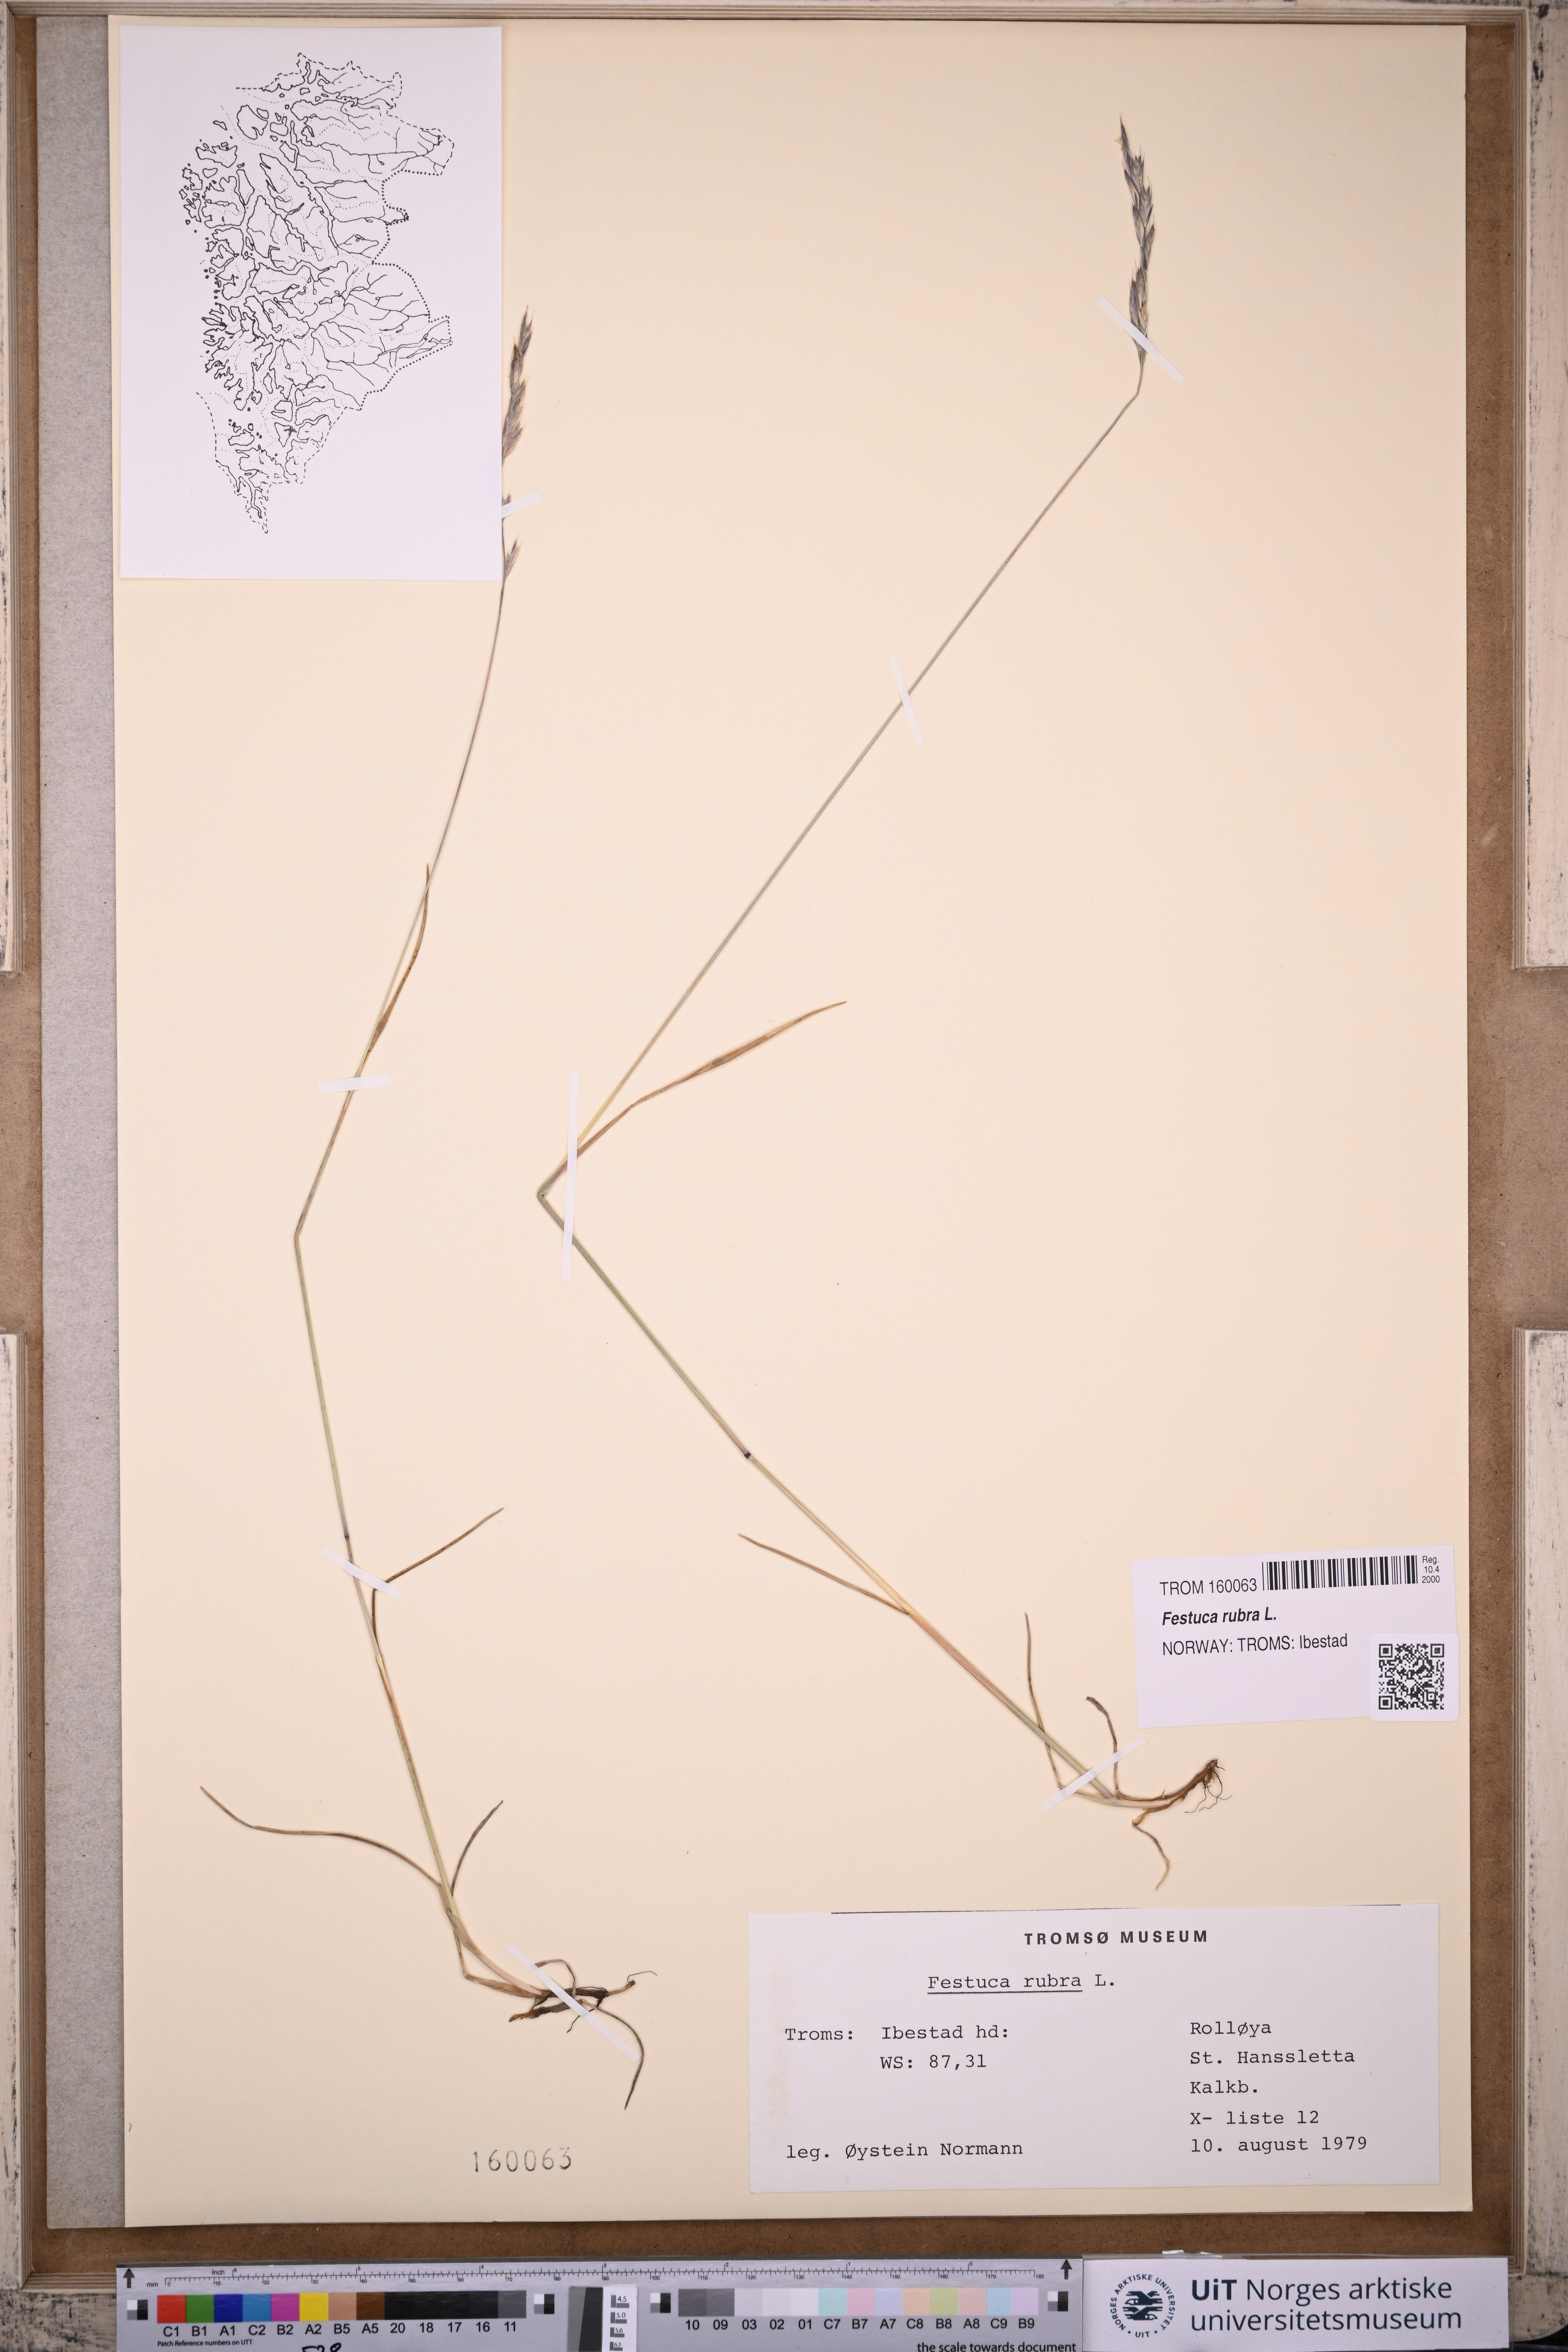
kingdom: Plantae
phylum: Tracheophyta
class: Liliopsida
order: Poales
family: Poaceae
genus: Festuca
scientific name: Festuca rubra
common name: Red fescue
